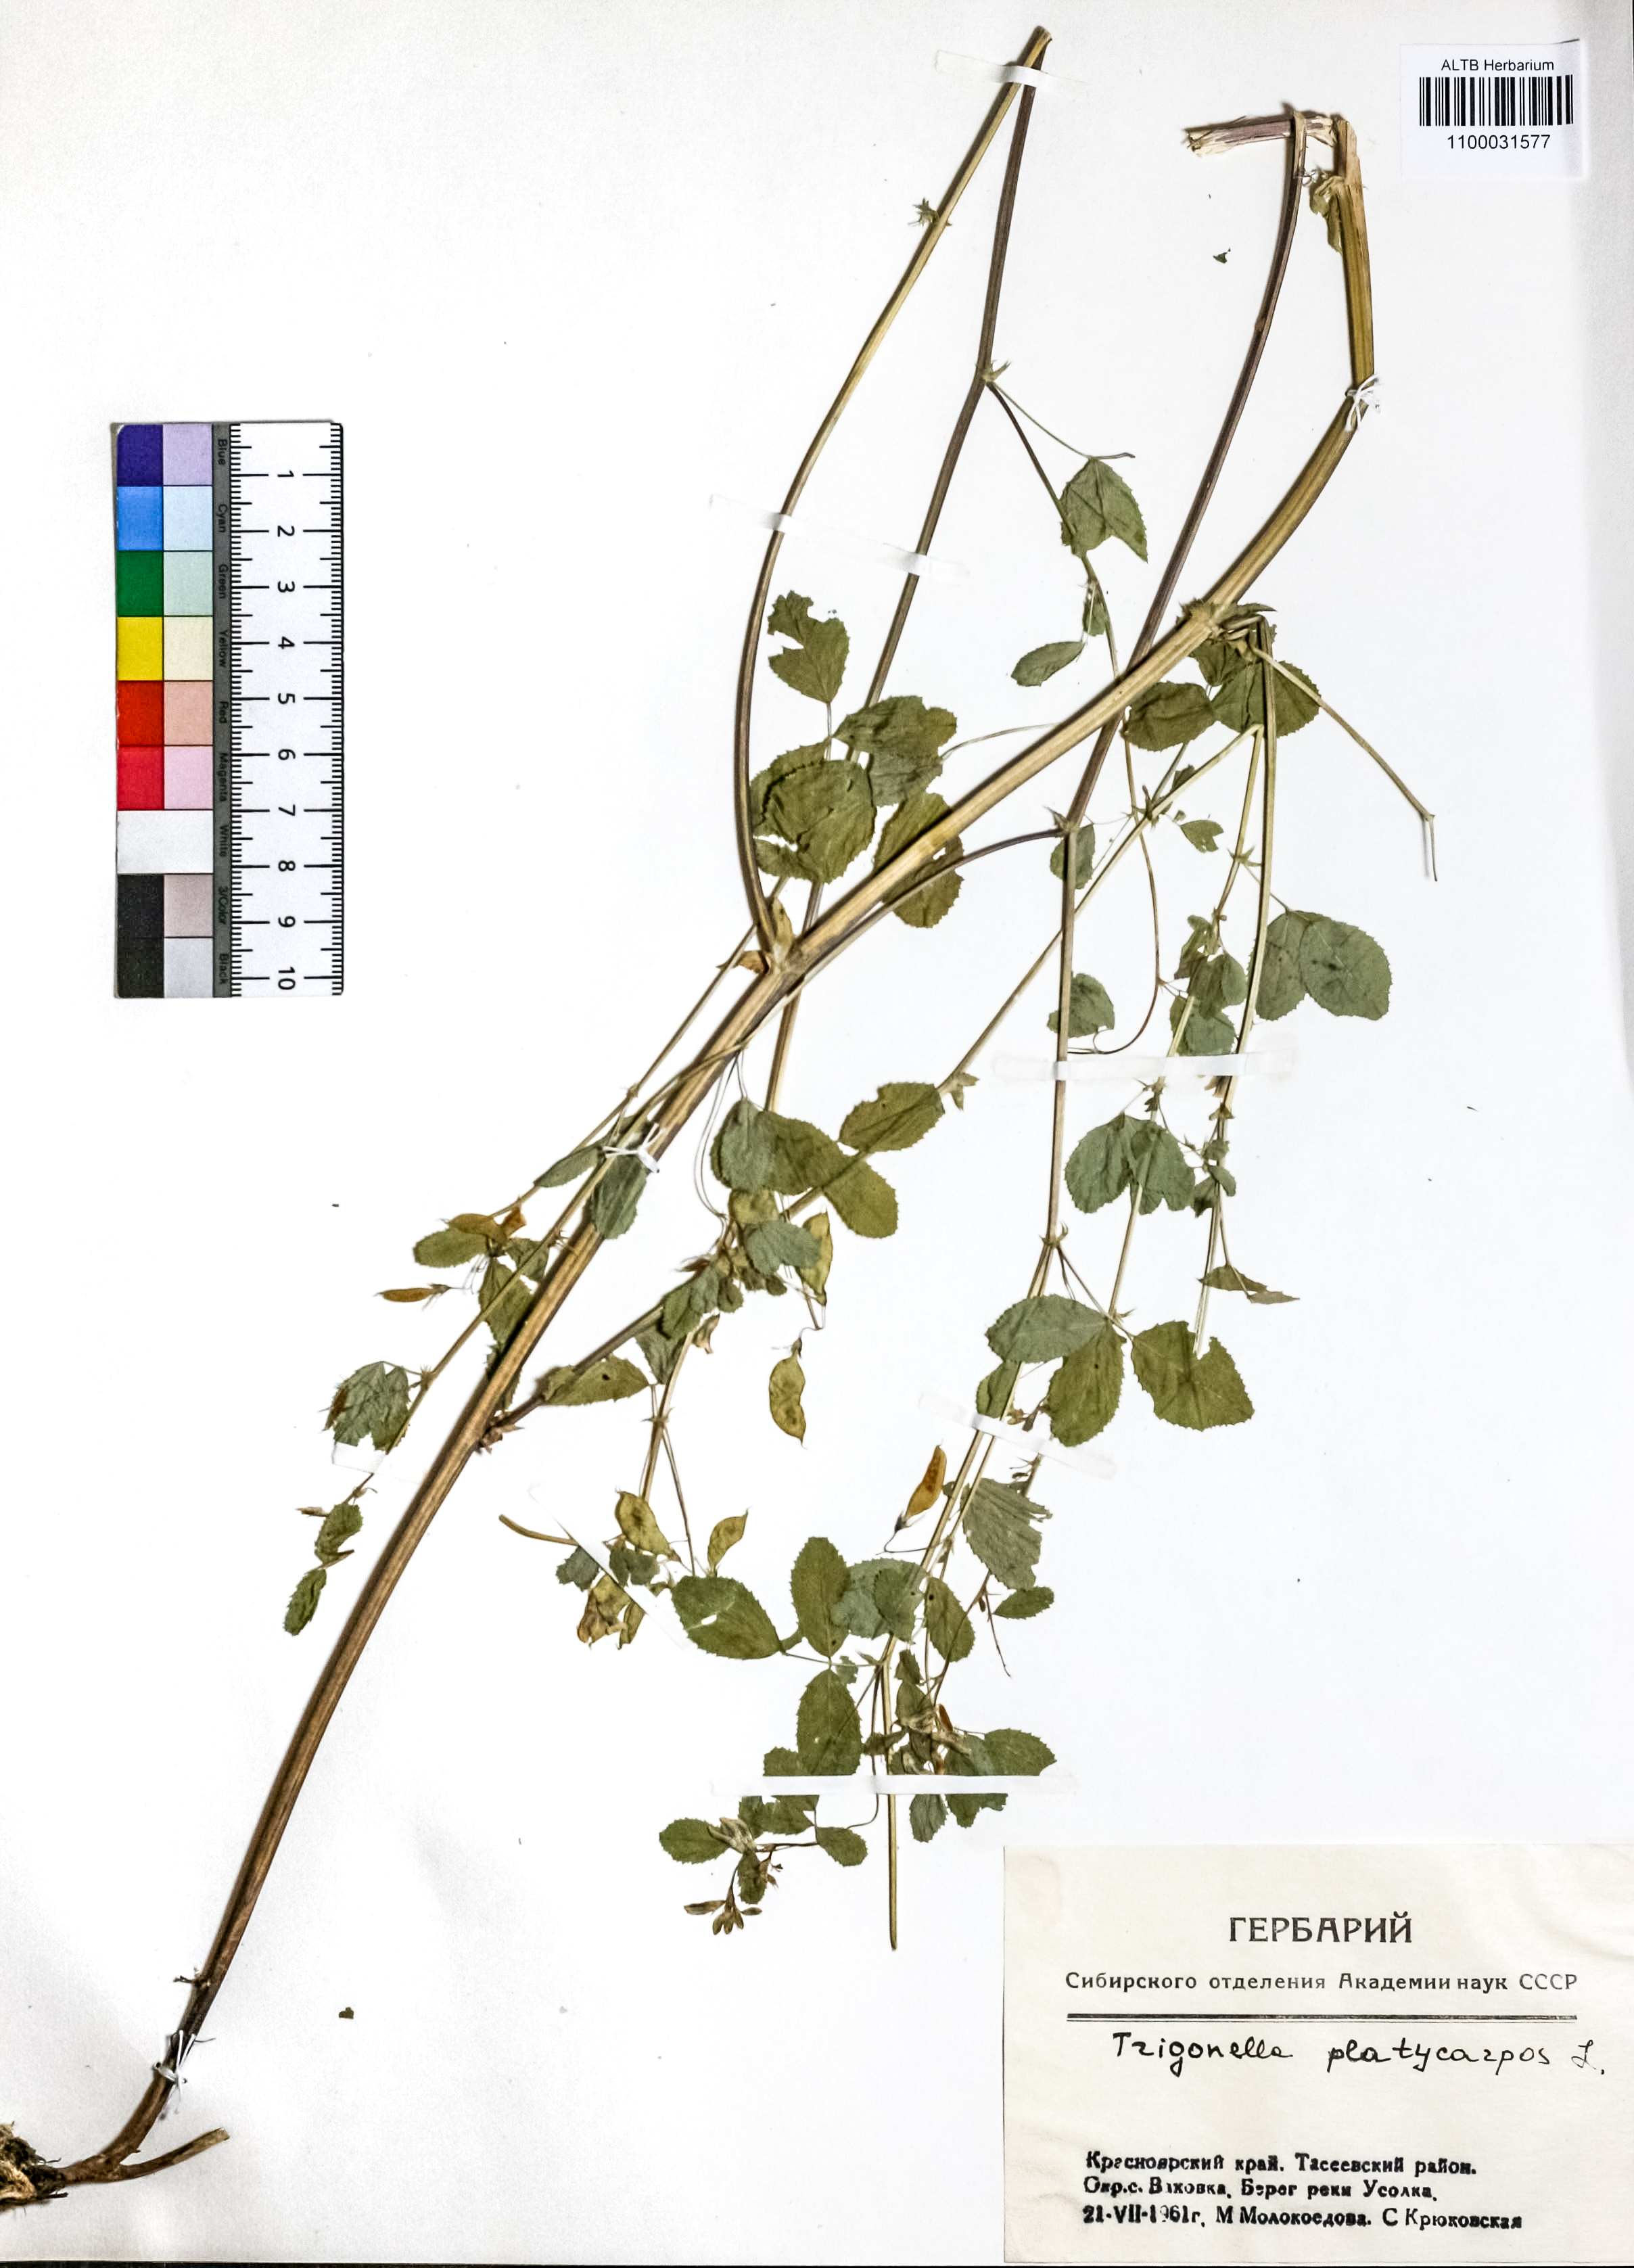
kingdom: Plantae
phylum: Tracheophyta
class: Magnoliopsida
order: Fabales
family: Fabaceae
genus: Medicago
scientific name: Medicago platycarpos
